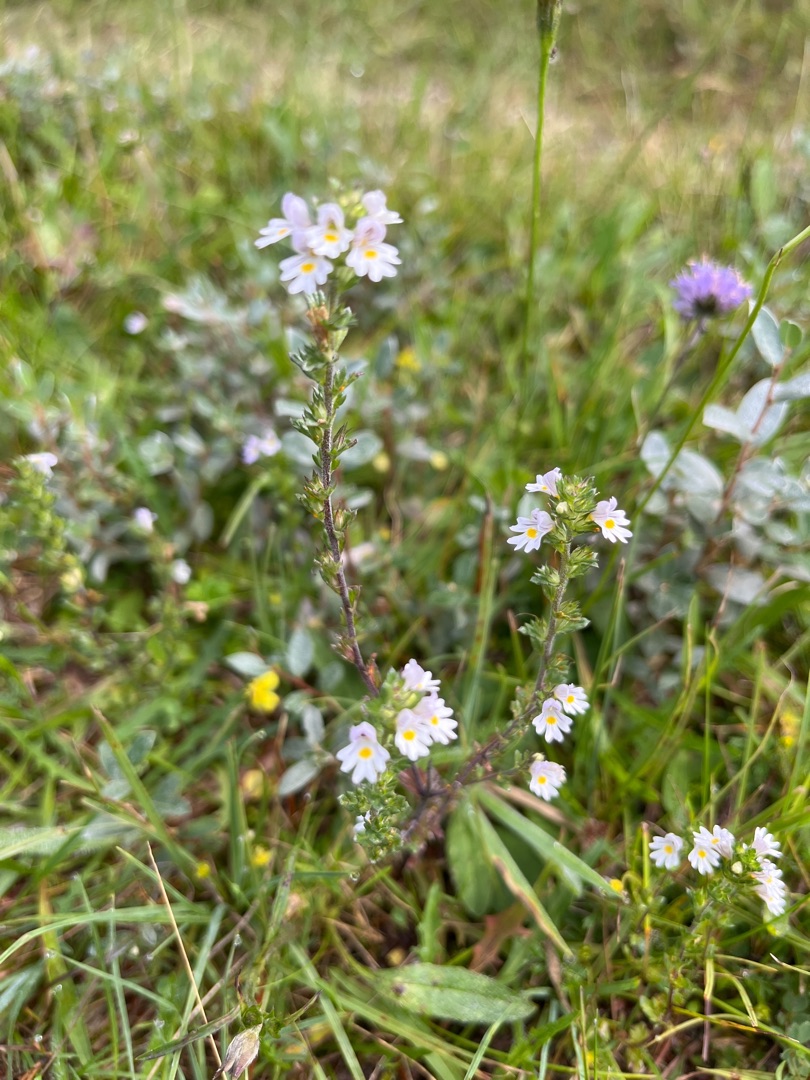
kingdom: Plantae
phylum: Tracheophyta
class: Magnoliopsida
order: Lamiales
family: Orobanchaceae
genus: Euphrasia
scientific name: Euphrasia nemorosa
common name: Kort øjentrøst
